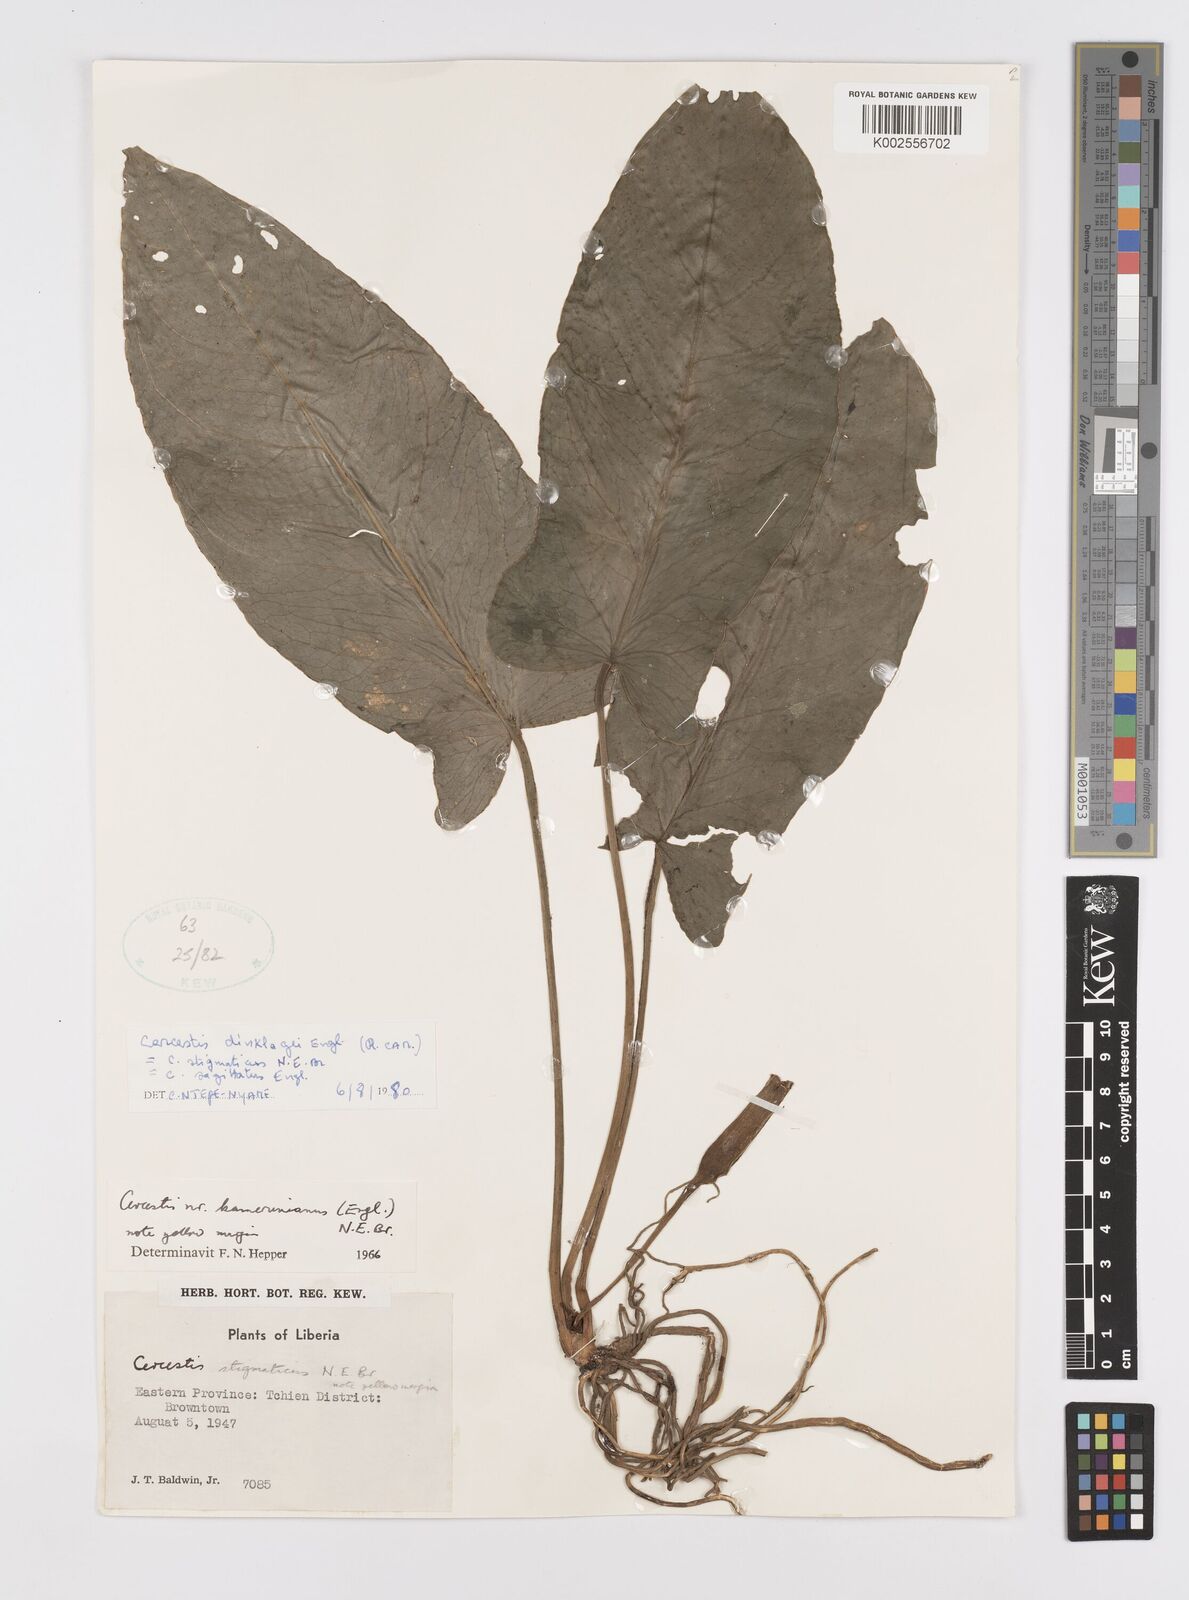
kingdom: Plantae
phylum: Tracheophyta
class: Liliopsida
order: Alismatales
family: Araceae
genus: Cercestis
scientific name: Cercestis dinklagei
